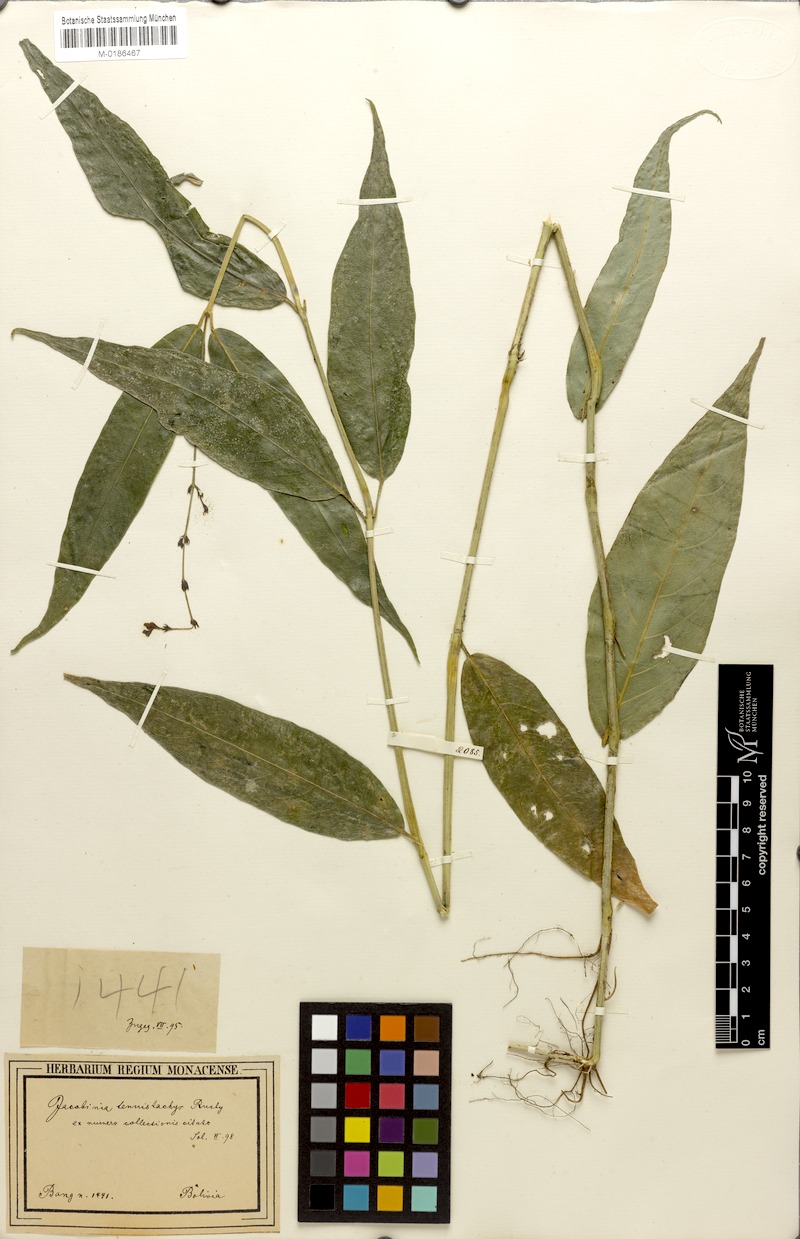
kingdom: Plantae
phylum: Tracheophyta
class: Magnoliopsida
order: Lamiales
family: Acanthaceae
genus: Justicia
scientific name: Justicia tenuistachys
